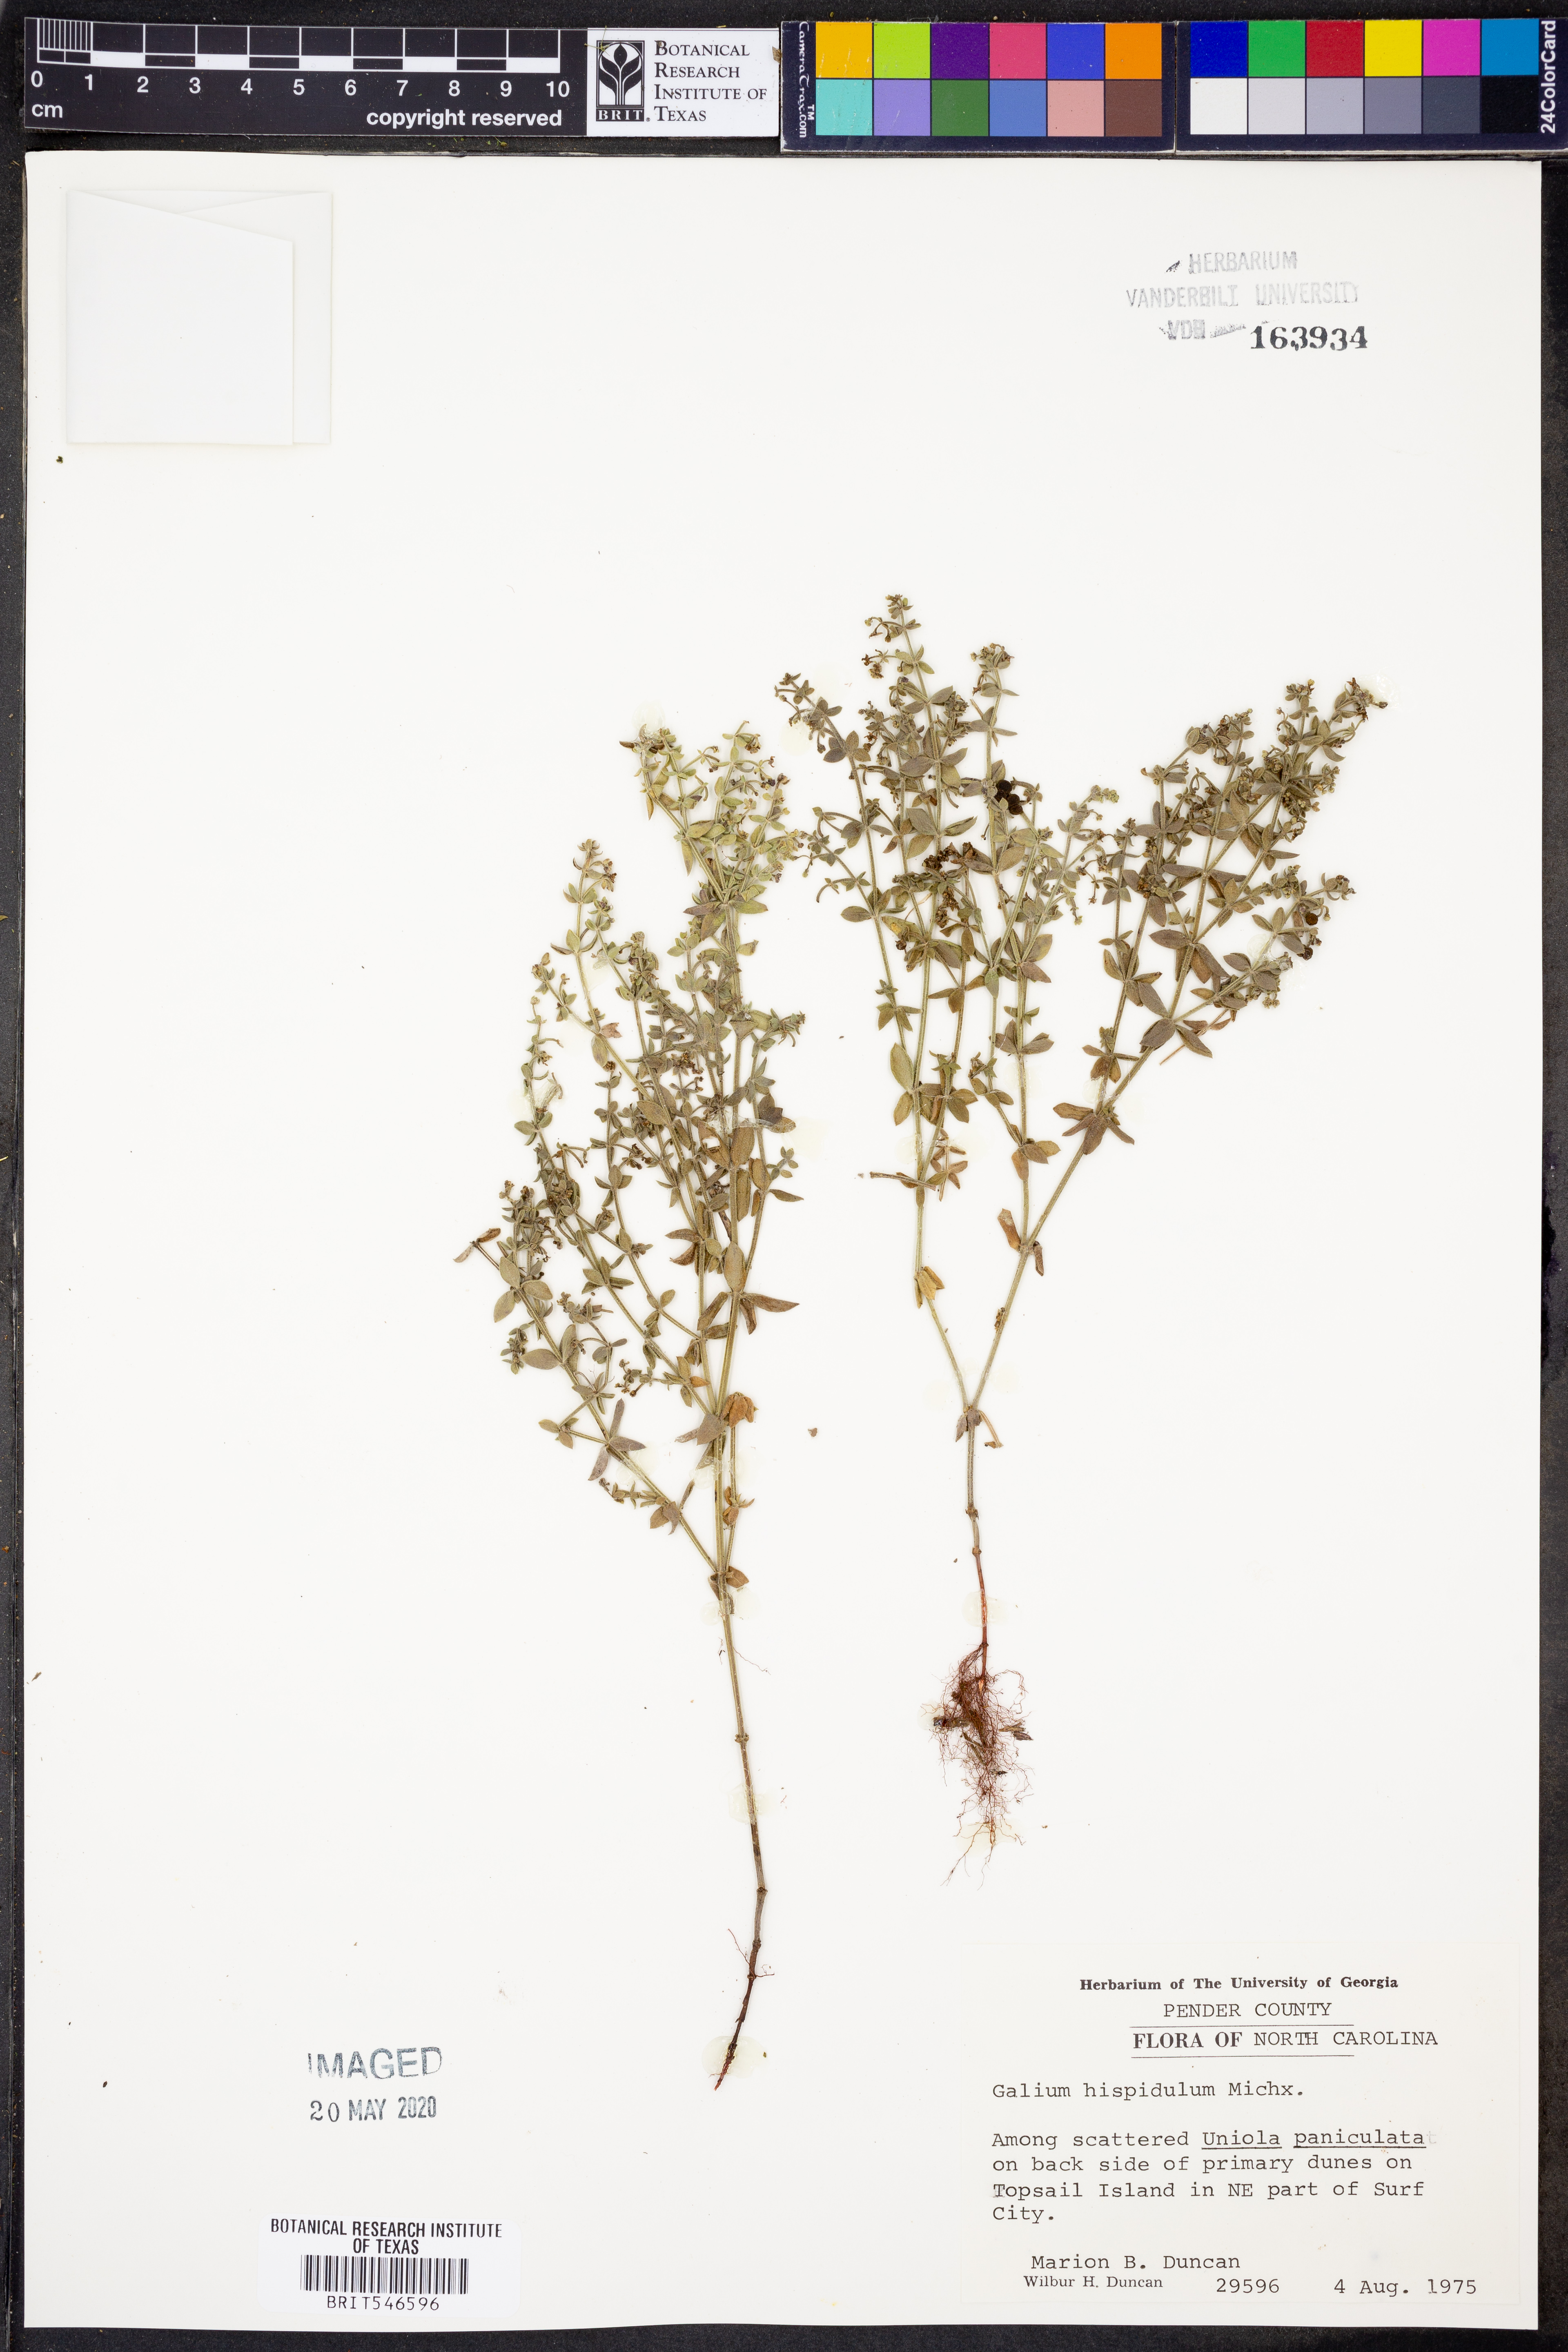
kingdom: Plantae
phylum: Tracheophyta
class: Magnoliopsida
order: Gentianales
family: Rubiaceae
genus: Galium
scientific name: Galium bermudense
